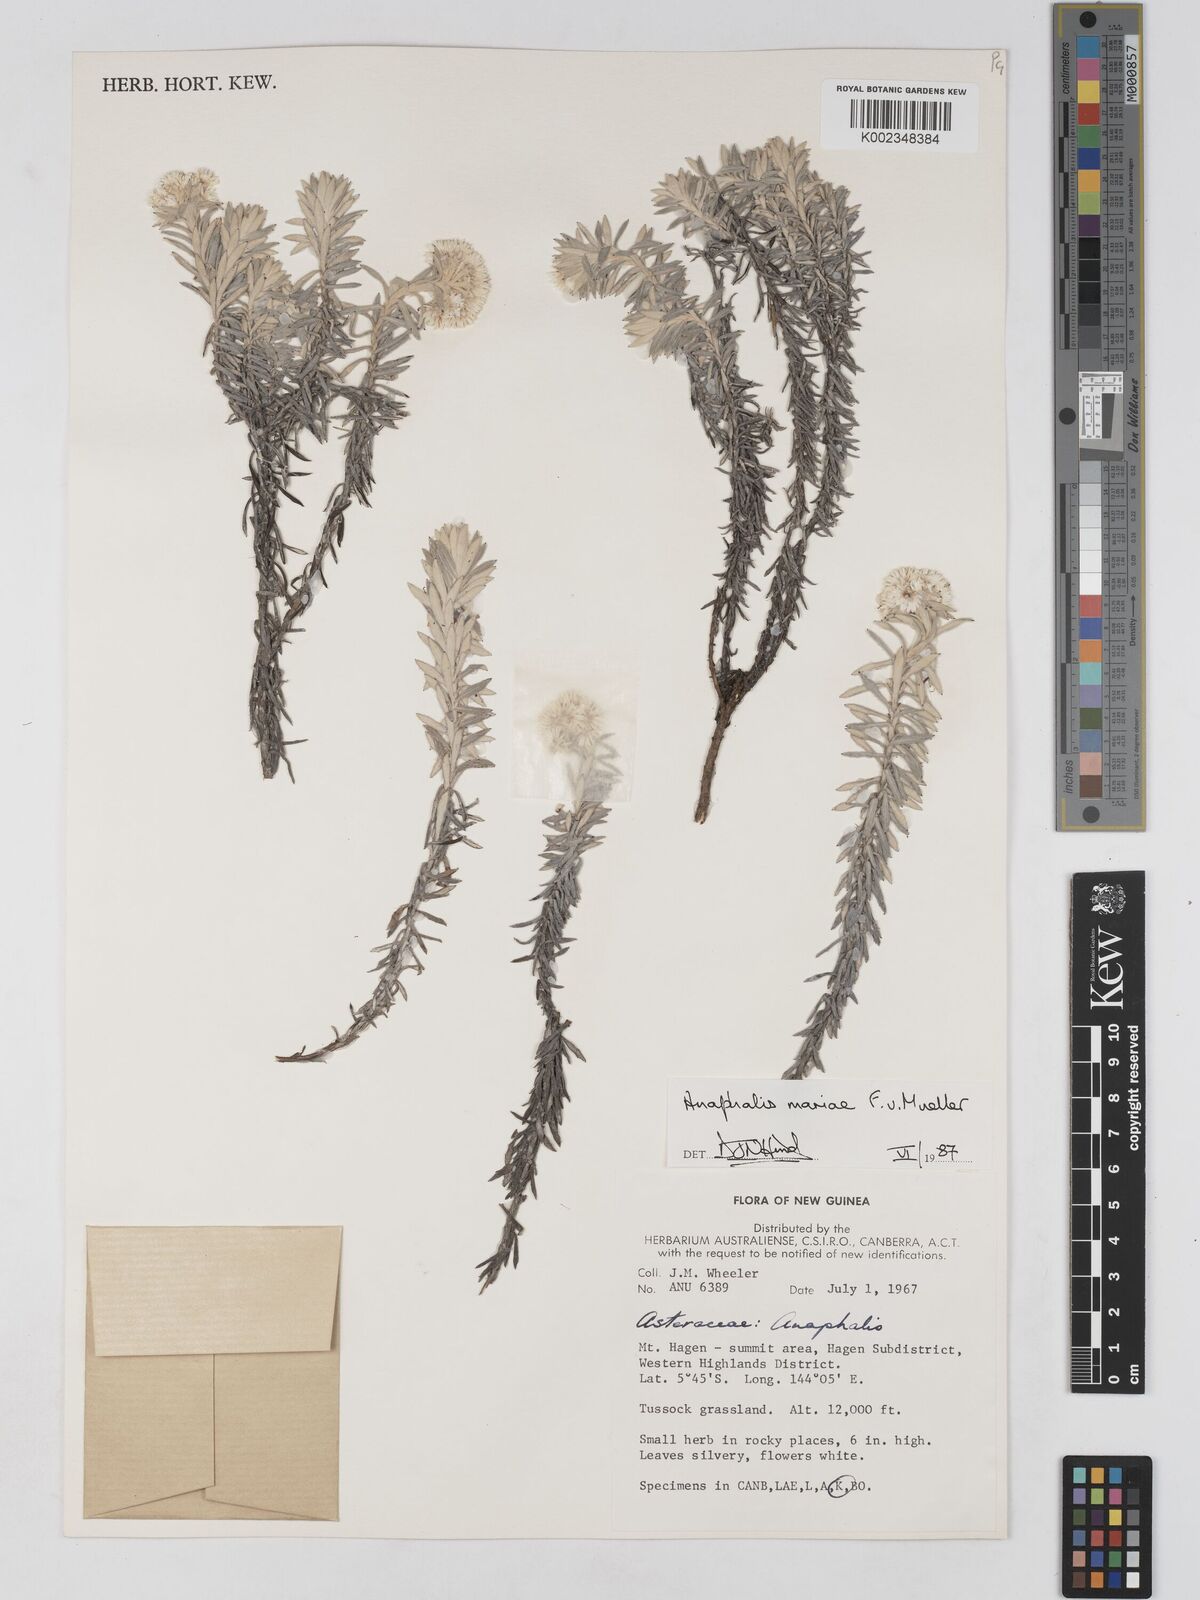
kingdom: Plantae
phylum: Tracheophyta
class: Magnoliopsida
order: Asterales
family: Asteraceae
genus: Anaphalioides
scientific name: Anaphalioides mariae
